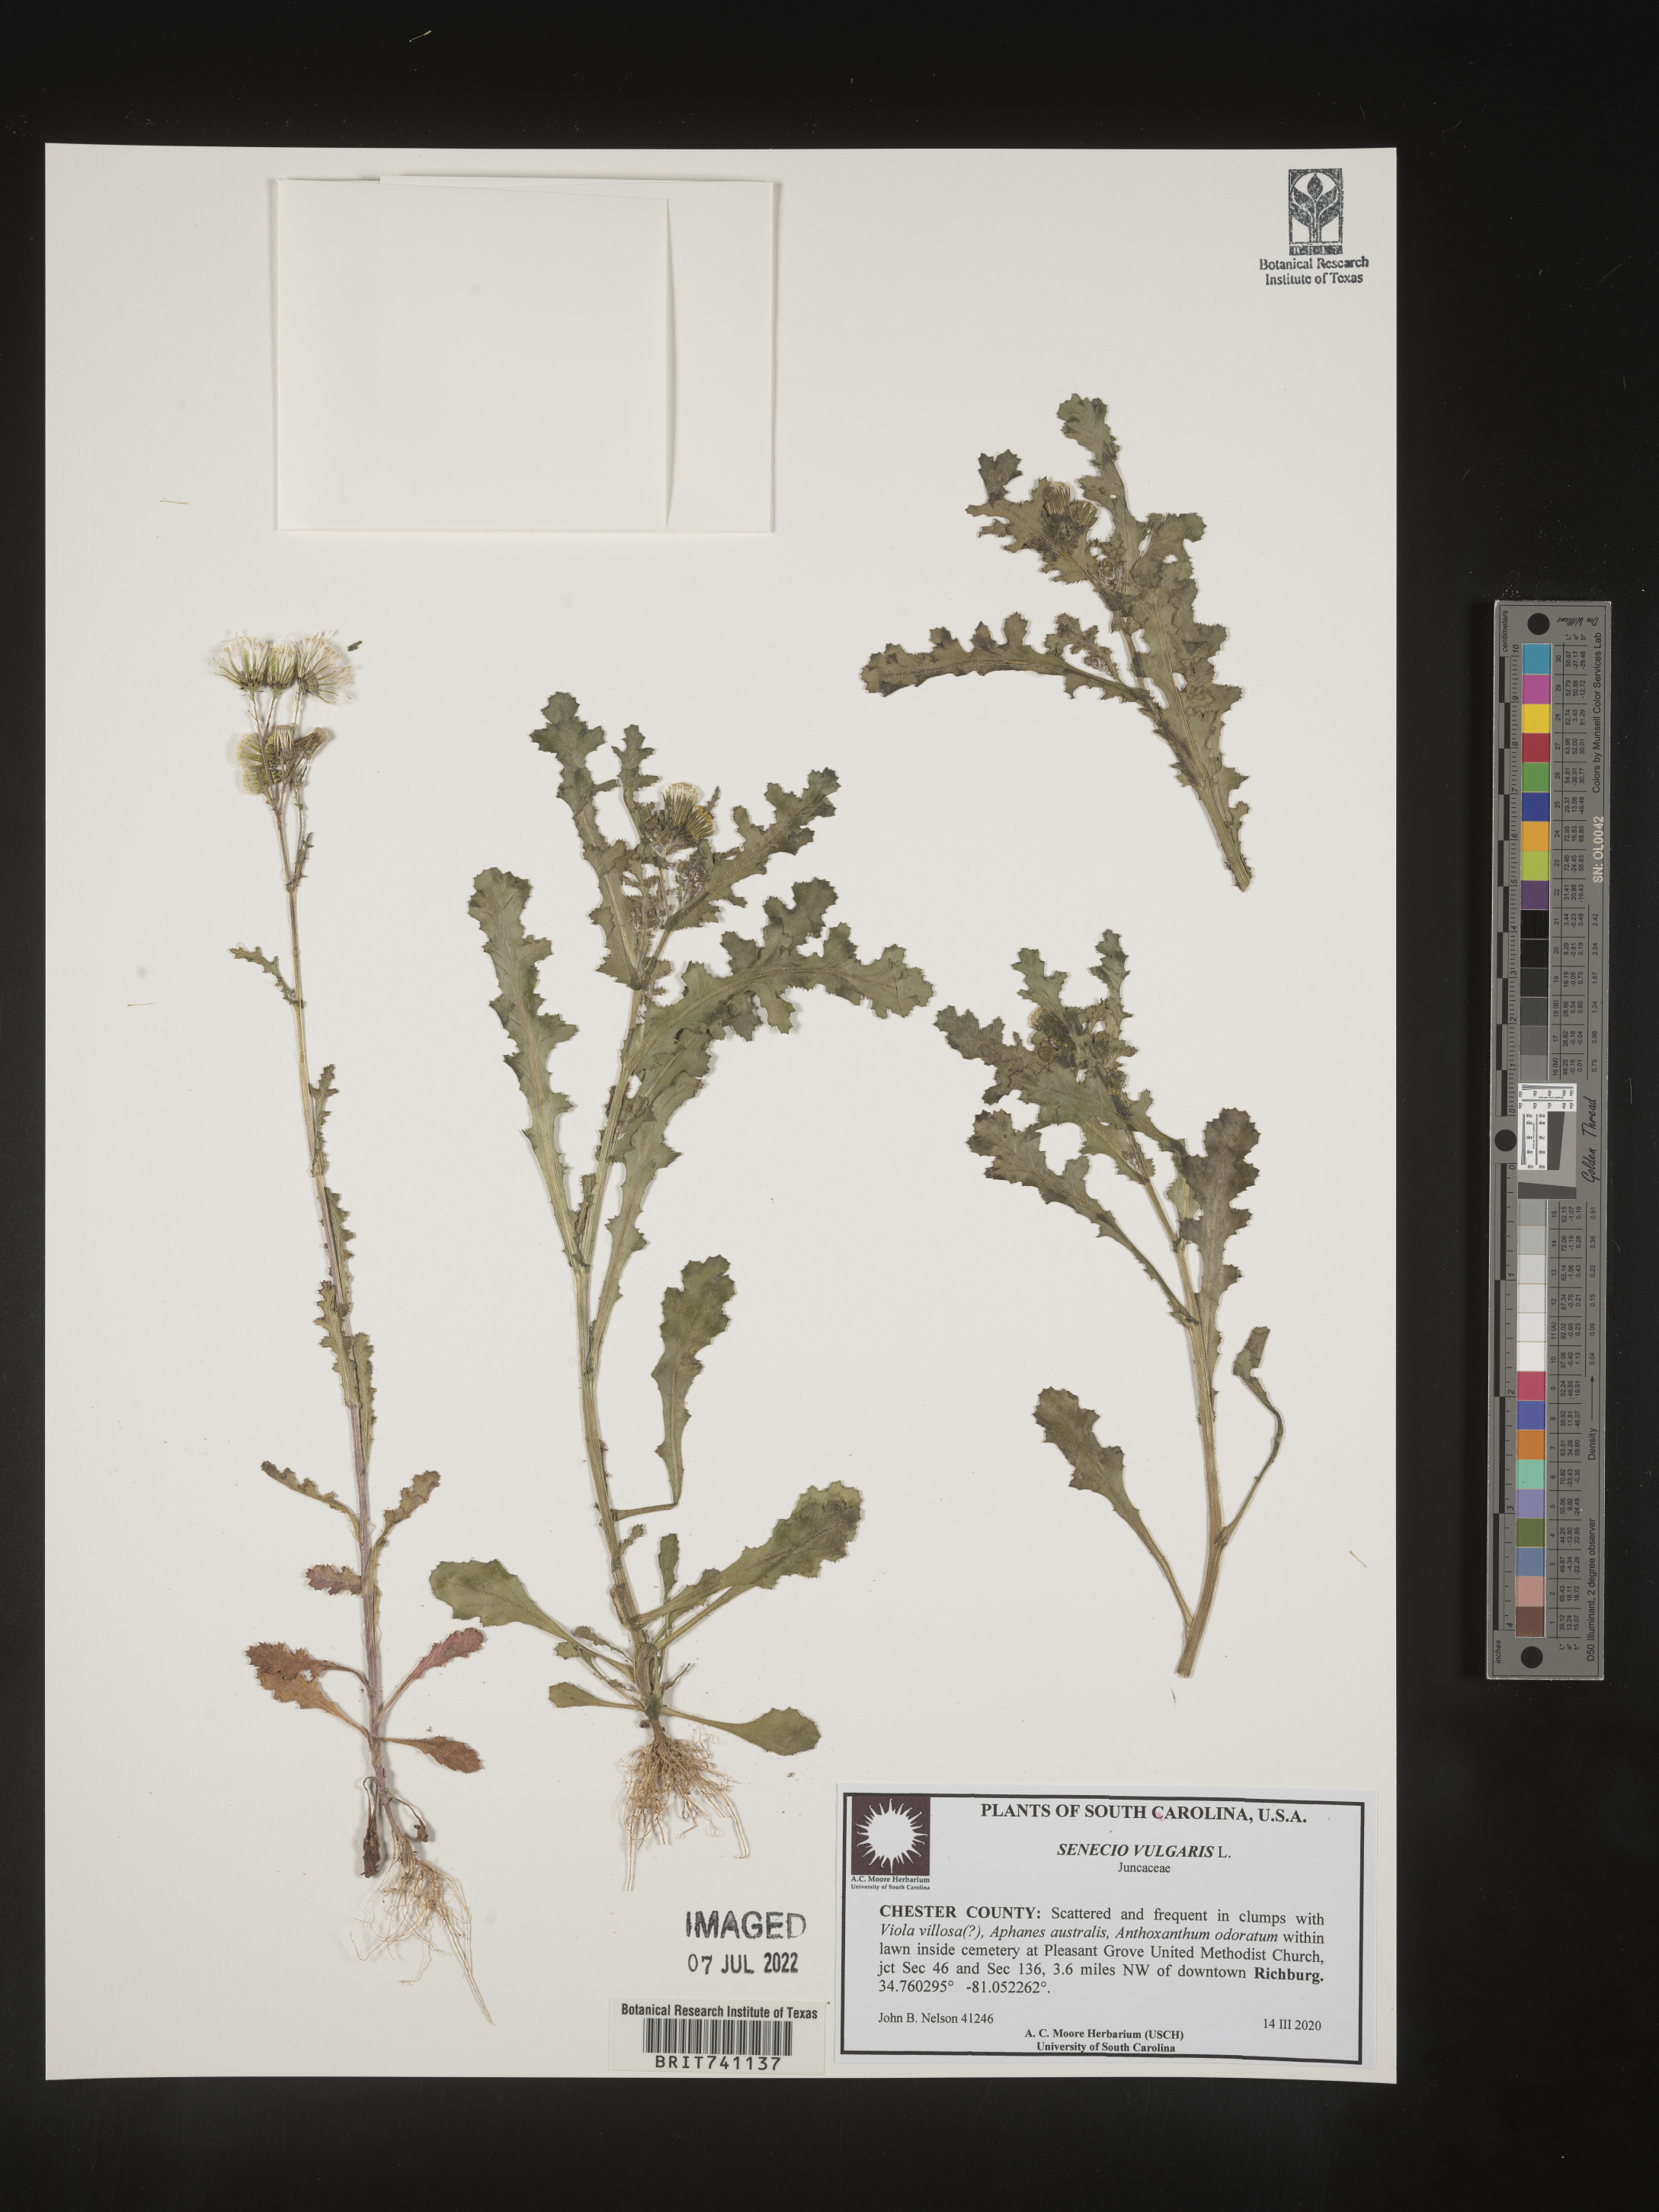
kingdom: Plantae
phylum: Tracheophyta
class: Magnoliopsida
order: Asterales
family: Asteraceae
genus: Senecio
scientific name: Senecio vulgaris
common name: Old-man-in-the-spring
